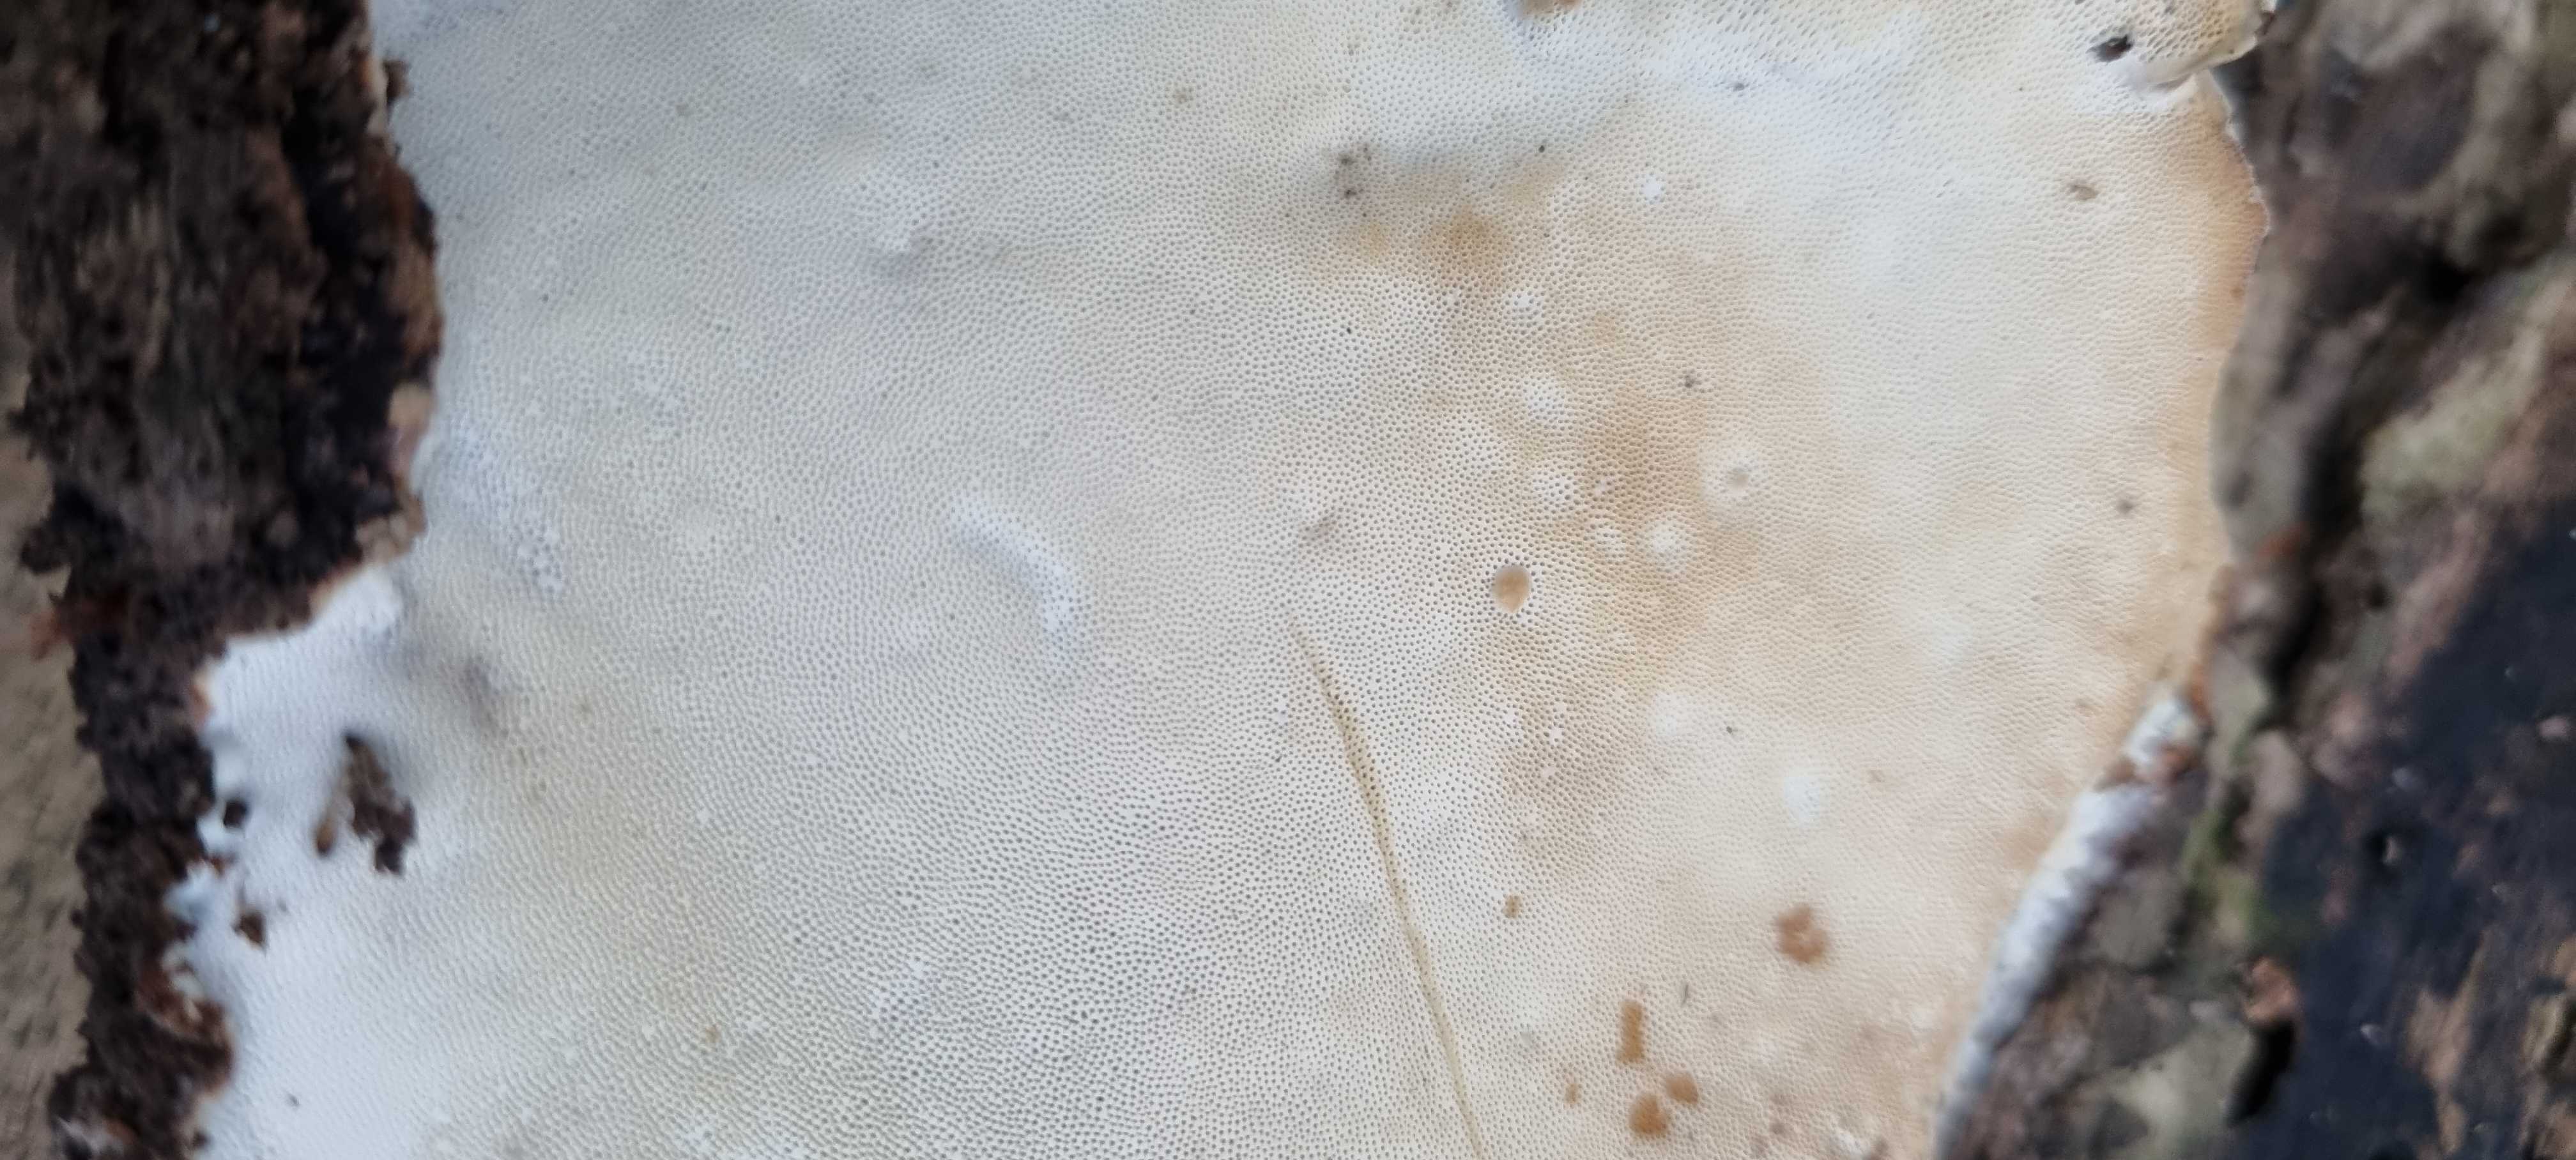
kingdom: Fungi
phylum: Basidiomycota
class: Agaricomycetes
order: Polyporales
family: Ischnodermataceae
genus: Ischnoderma
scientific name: Ischnoderma resinosum
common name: løv-tjæreporesvamp
